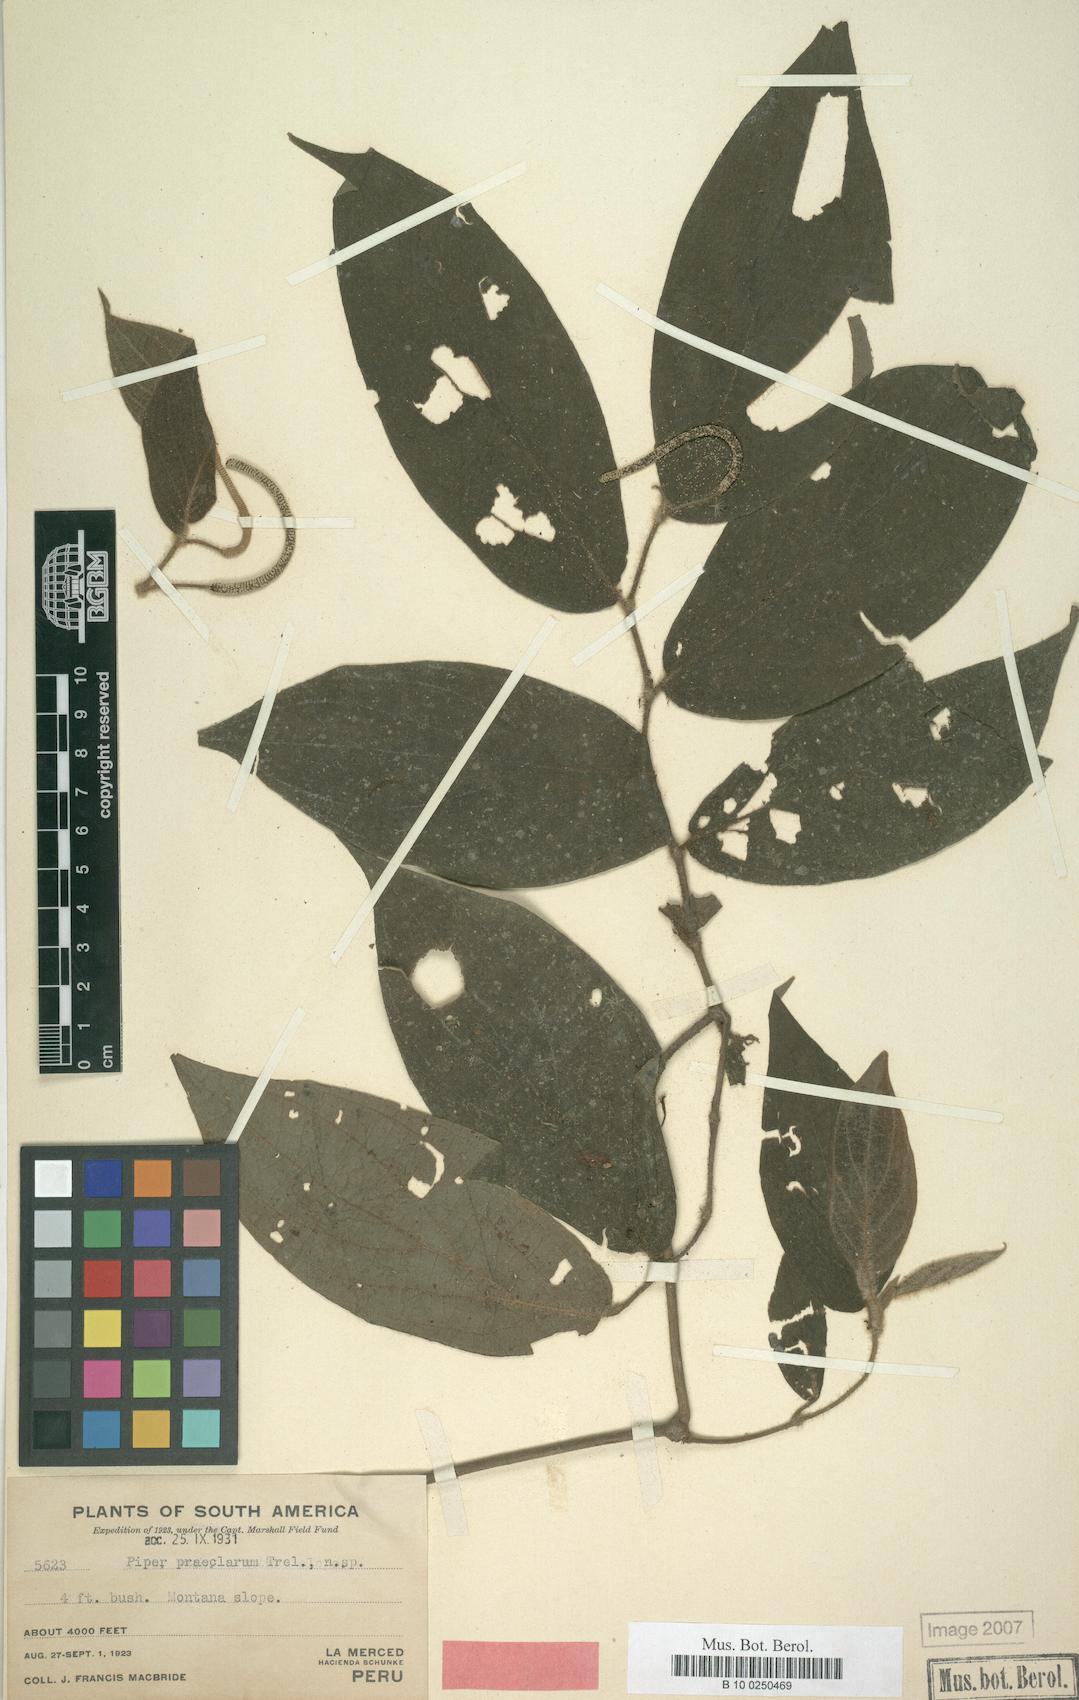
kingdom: Plantae
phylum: Tracheophyta
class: Magnoliopsida
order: Piperales
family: Piperaceae
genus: Piper
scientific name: Piper obliquum
